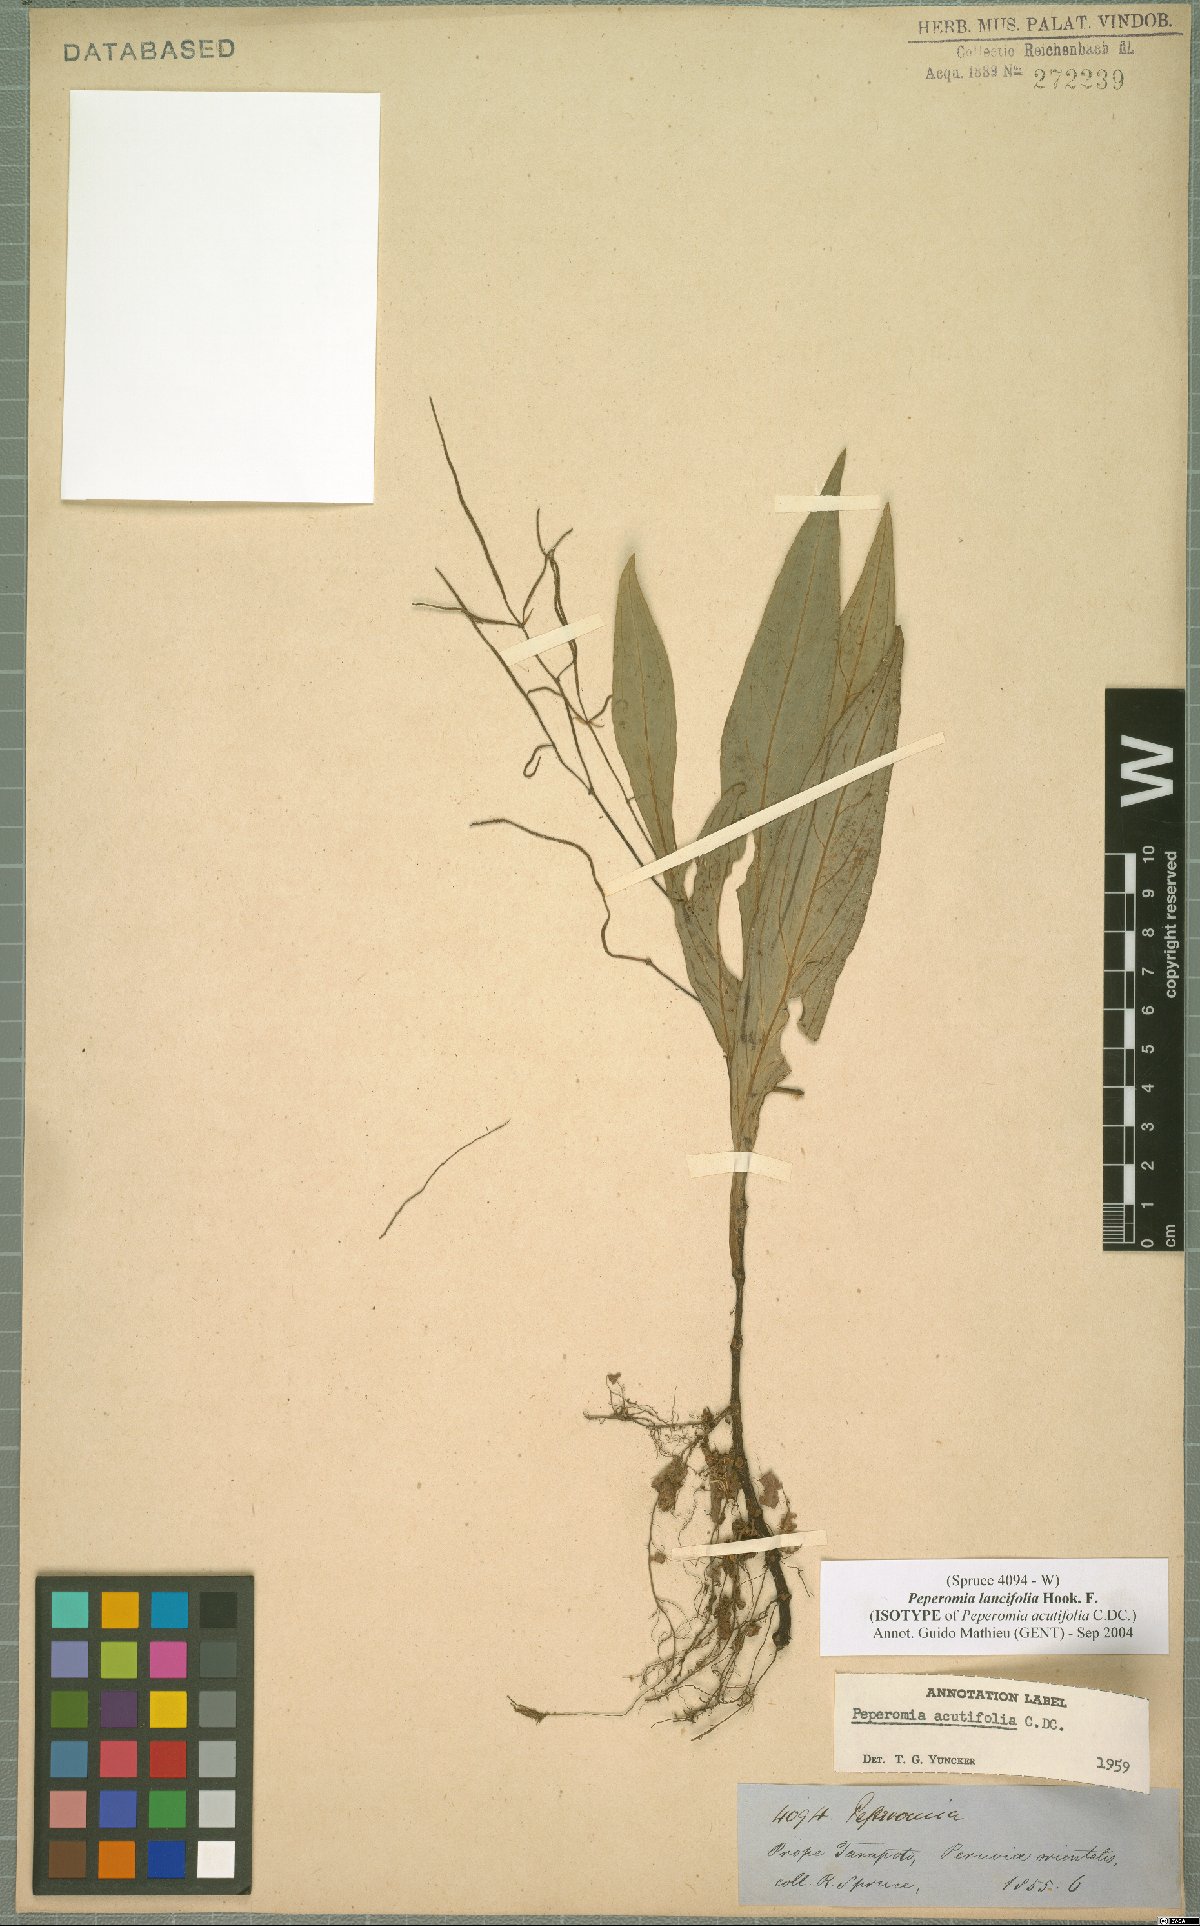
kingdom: Plantae
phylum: Tracheophyta
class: Magnoliopsida
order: Piperales
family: Piperaceae
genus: Peperomia
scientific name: Peperomia lancifolia
